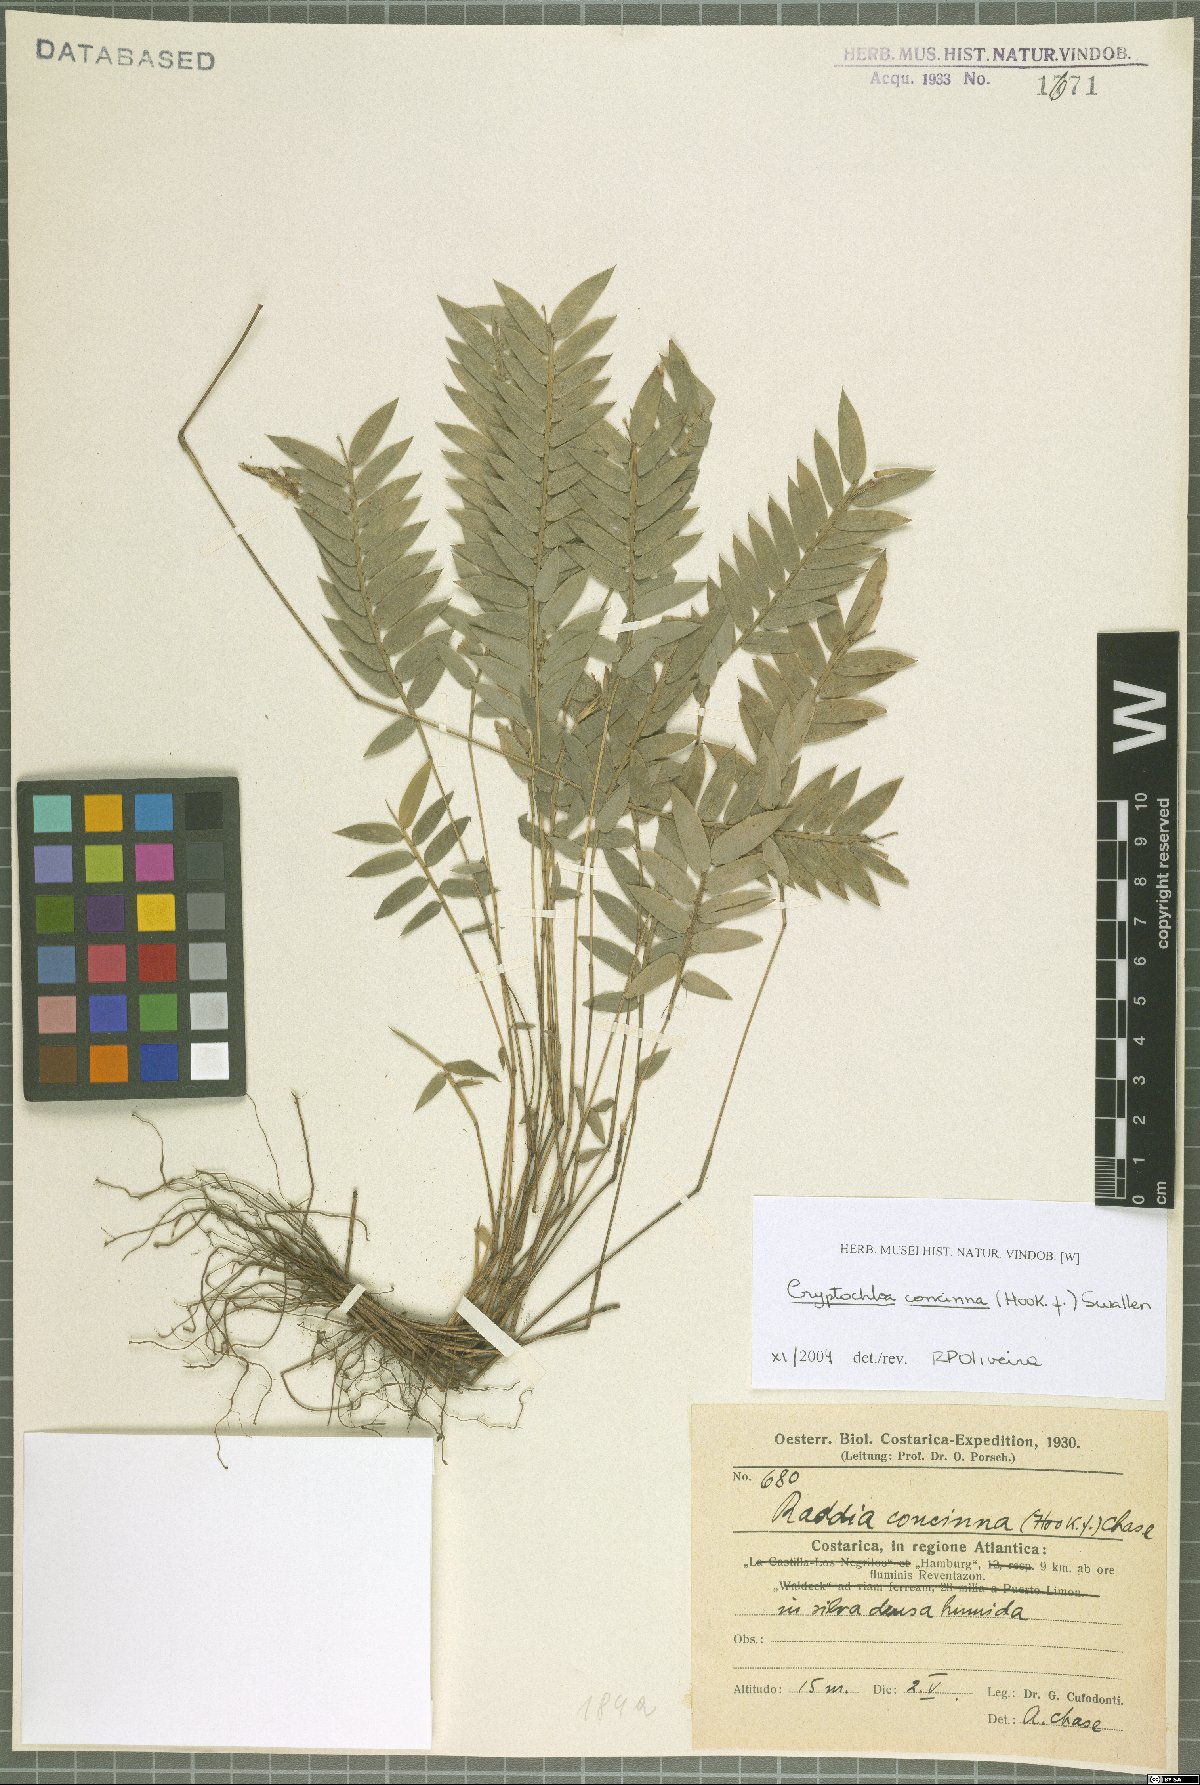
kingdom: Plantae
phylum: Tracheophyta
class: Liliopsida
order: Poales
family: Poaceae
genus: Cryptochloa
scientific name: Cryptochloa concinna
